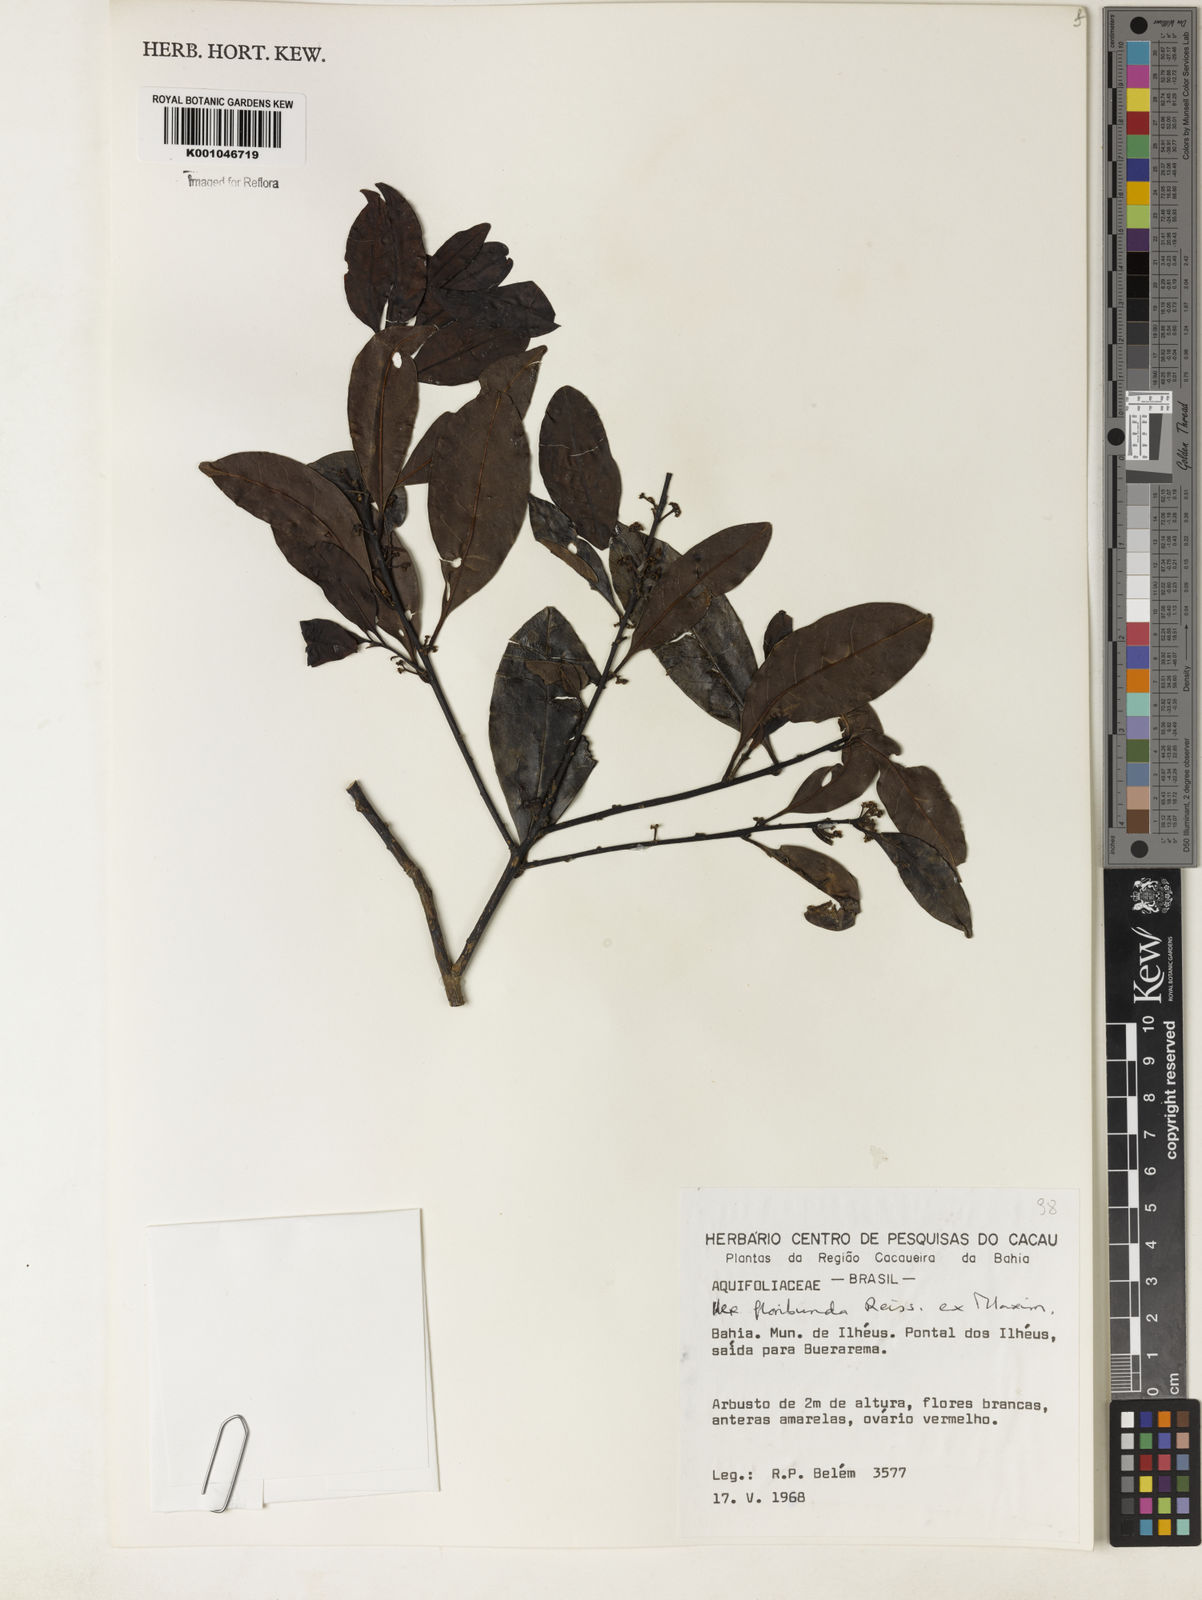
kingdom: Plantae
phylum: Tracheophyta
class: Magnoliopsida
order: Aquifoliales
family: Aquifoliaceae
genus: Ilex
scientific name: Ilex floribunda
